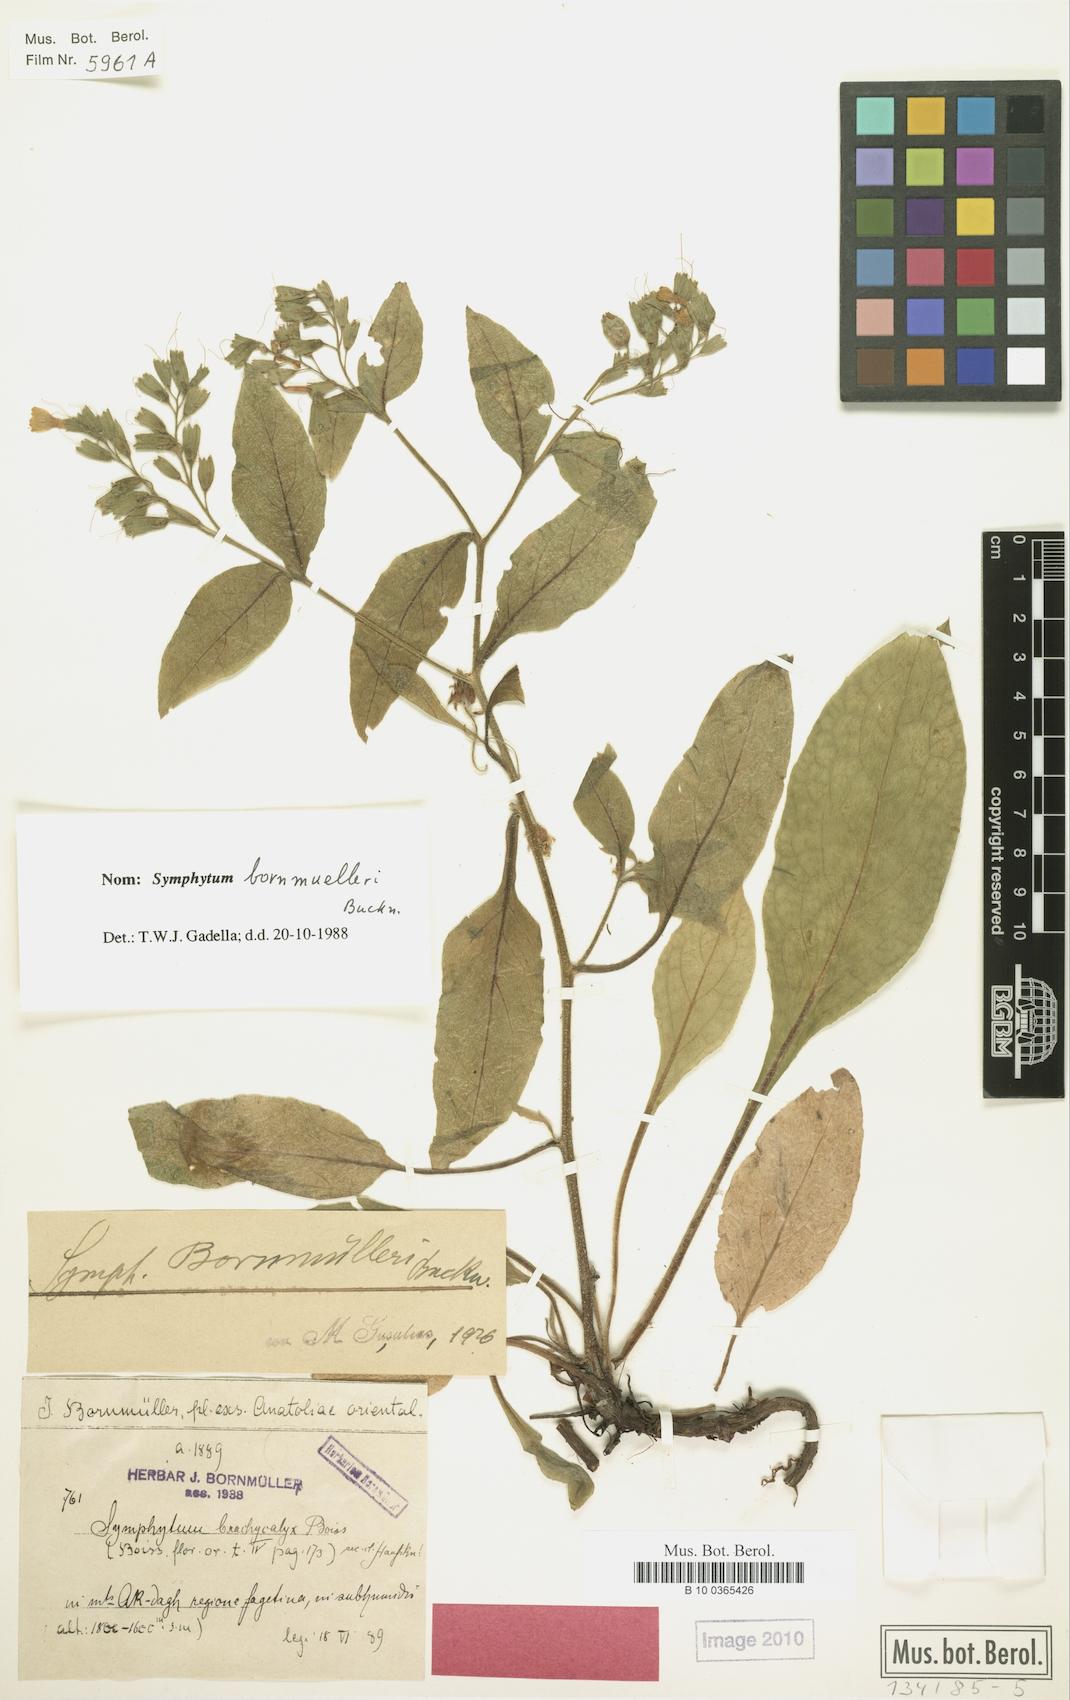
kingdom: Plantae
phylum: Tracheophyta
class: Magnoliopsida
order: Boraginales
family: Boraginaceae
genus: Symphytum
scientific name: Symphytum bornmuelleri
